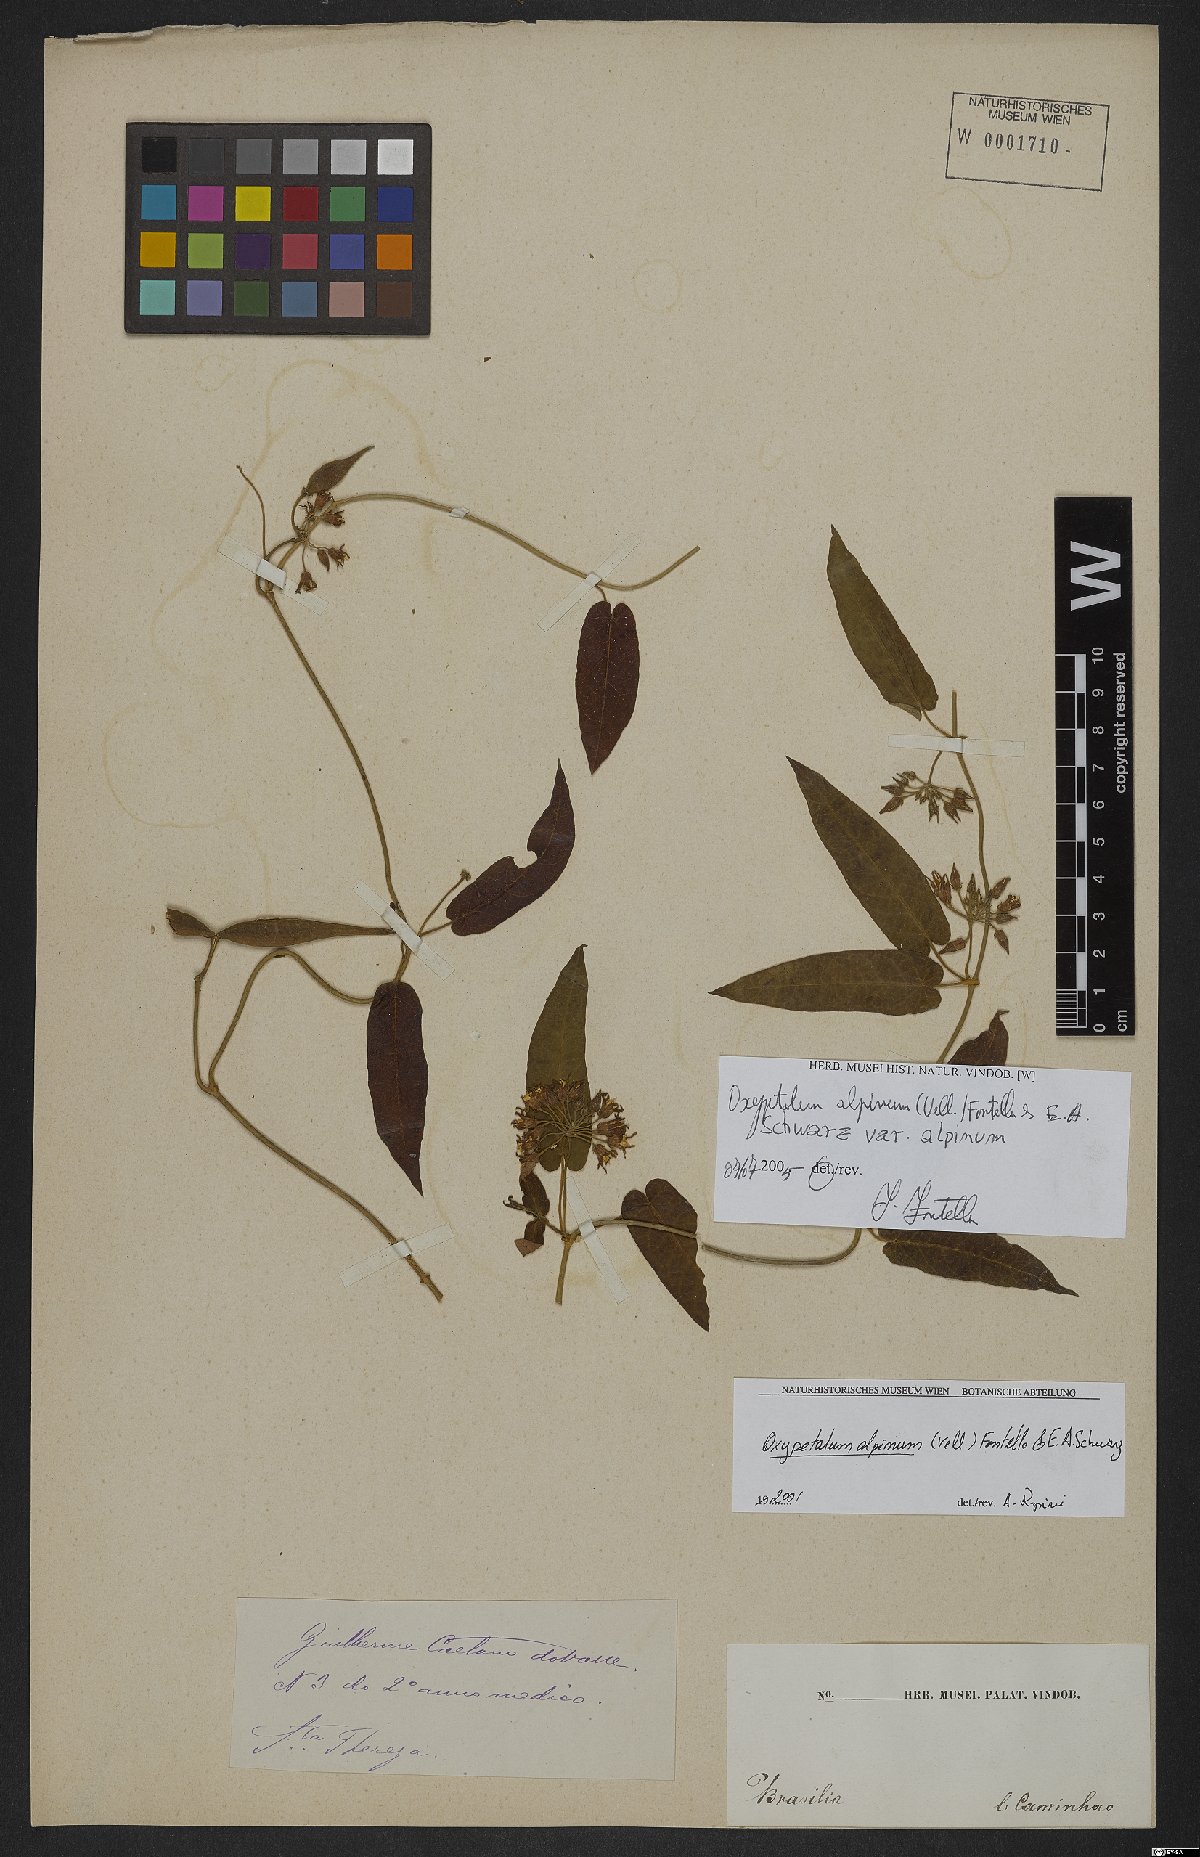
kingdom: Plantae
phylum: Tracheophyta
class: Magnoliopsida
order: Gentianales
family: Apocynaceae
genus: Oxypetalum
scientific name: Oxypetalum alpinum
